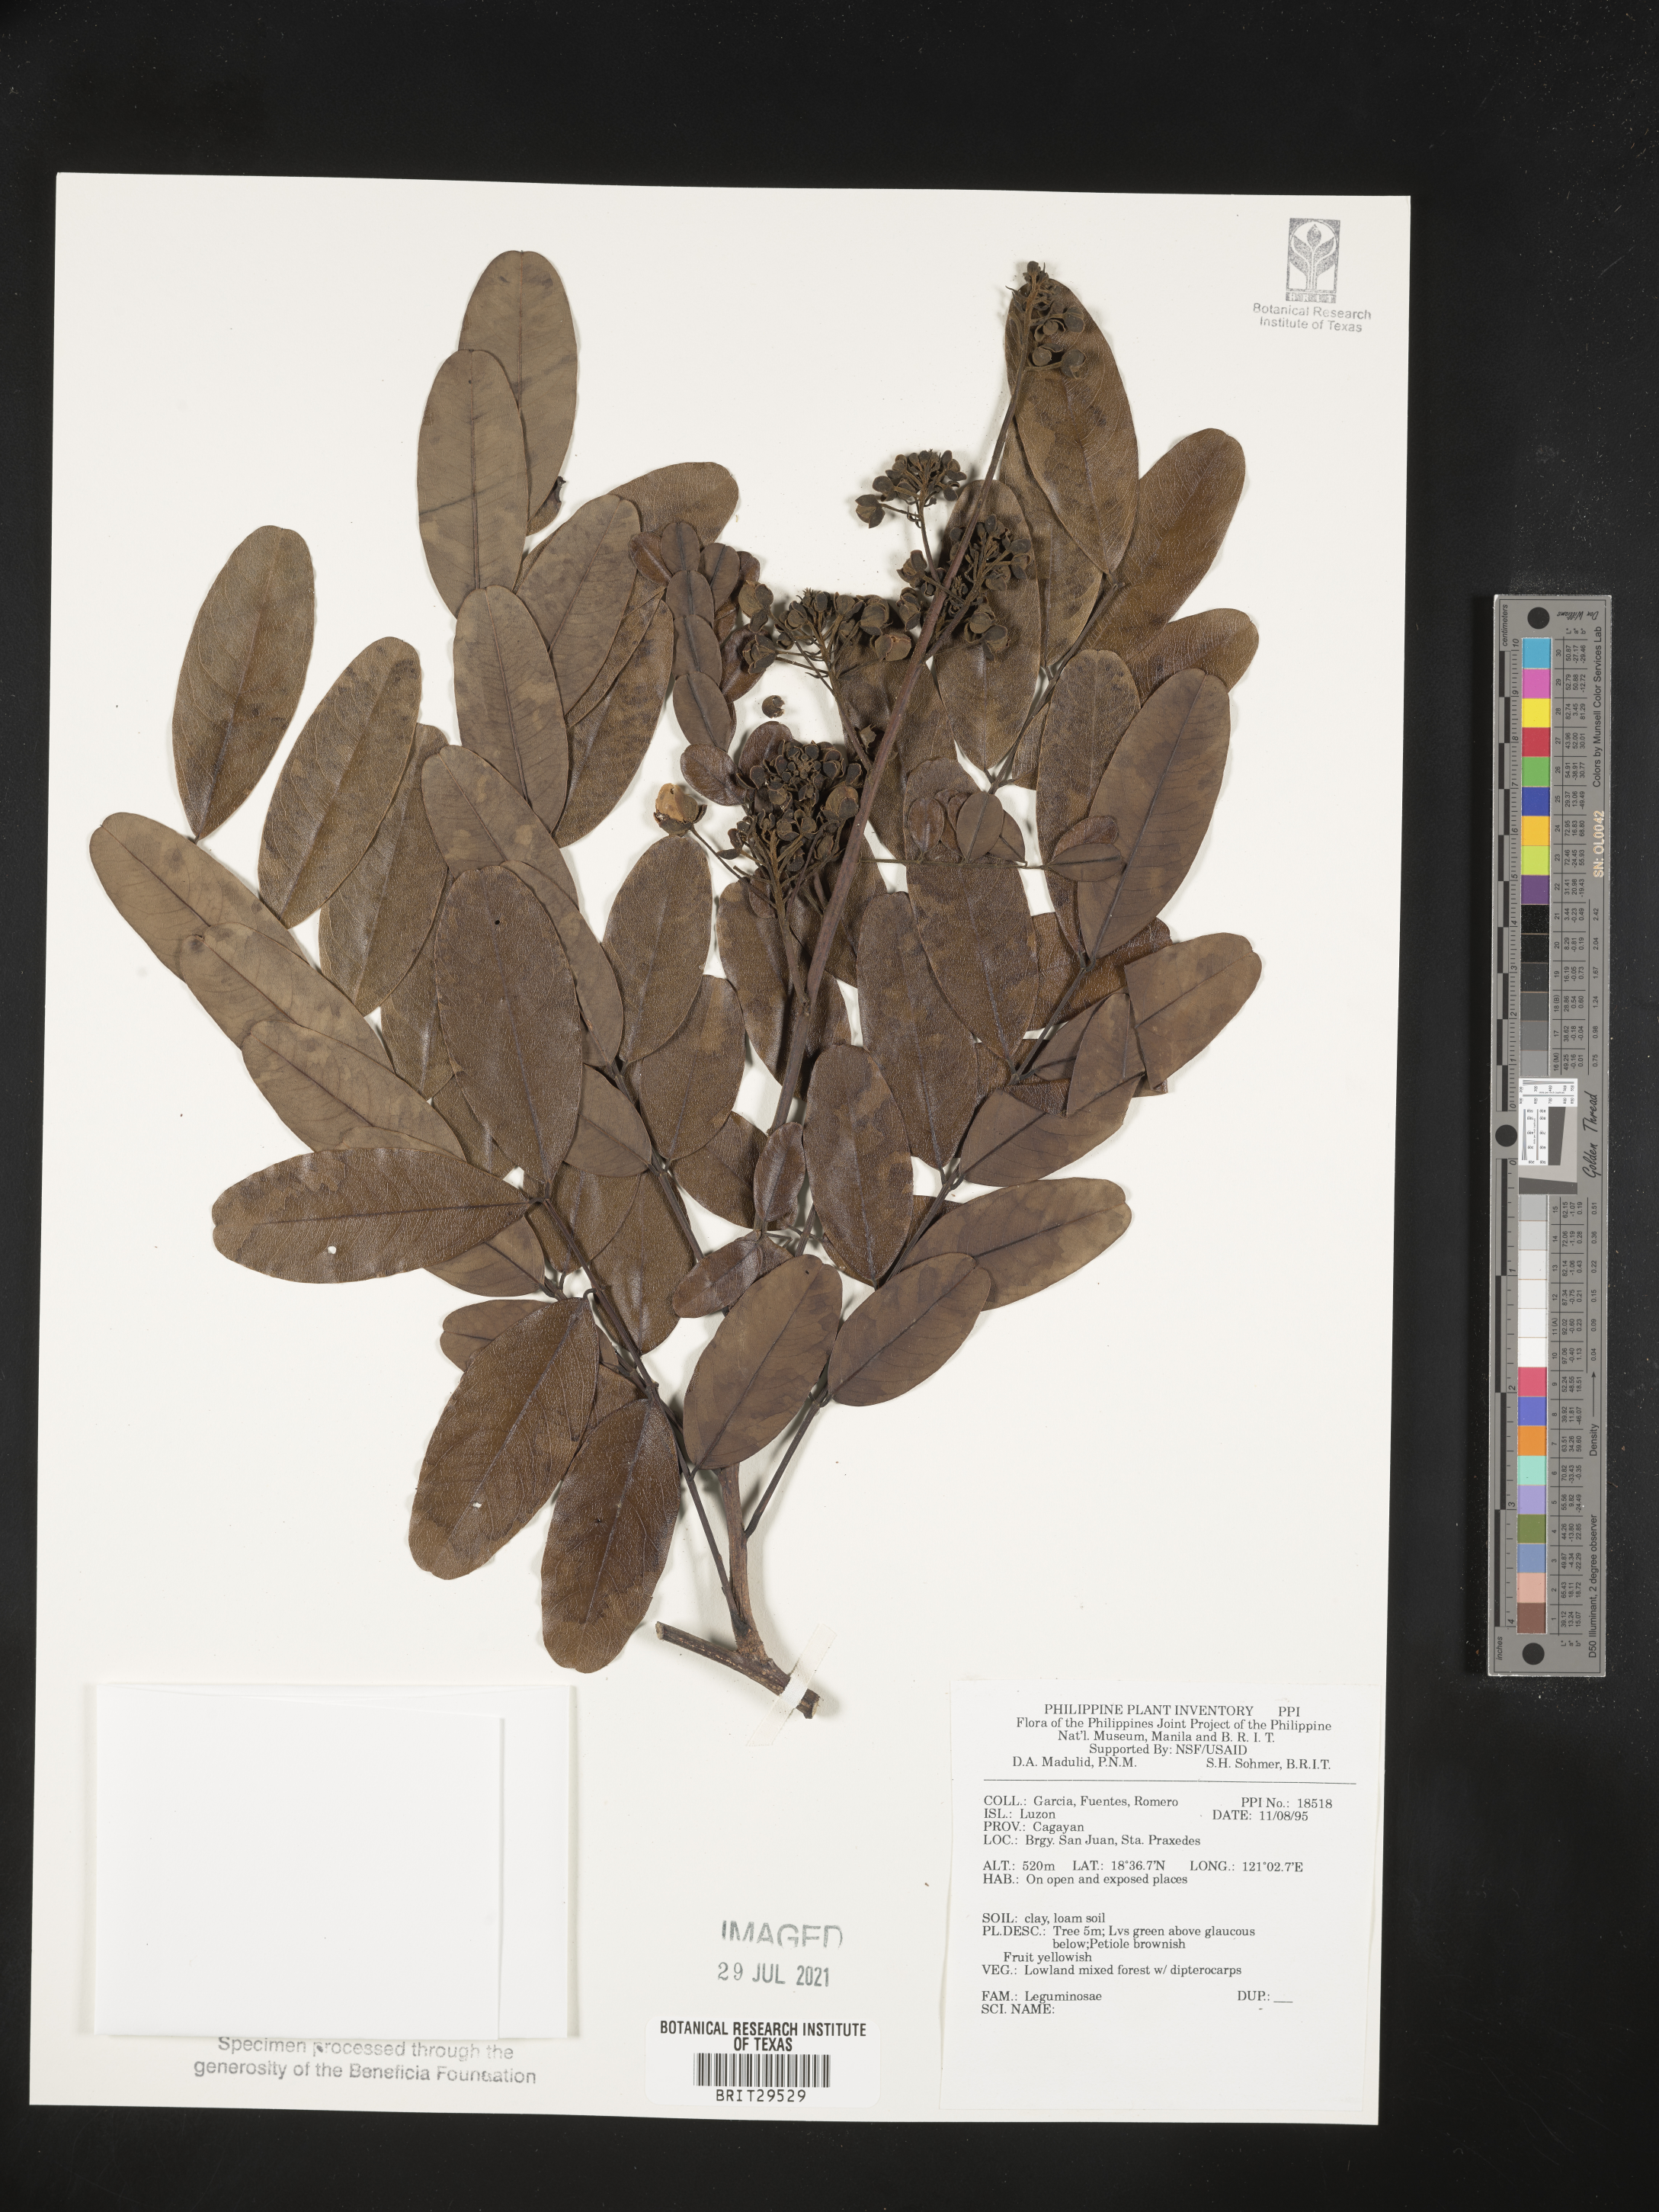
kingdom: Plantae
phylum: Tracheophyta
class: Magnoliopsida
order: Fabales
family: Fabaceae
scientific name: Fabaceae
